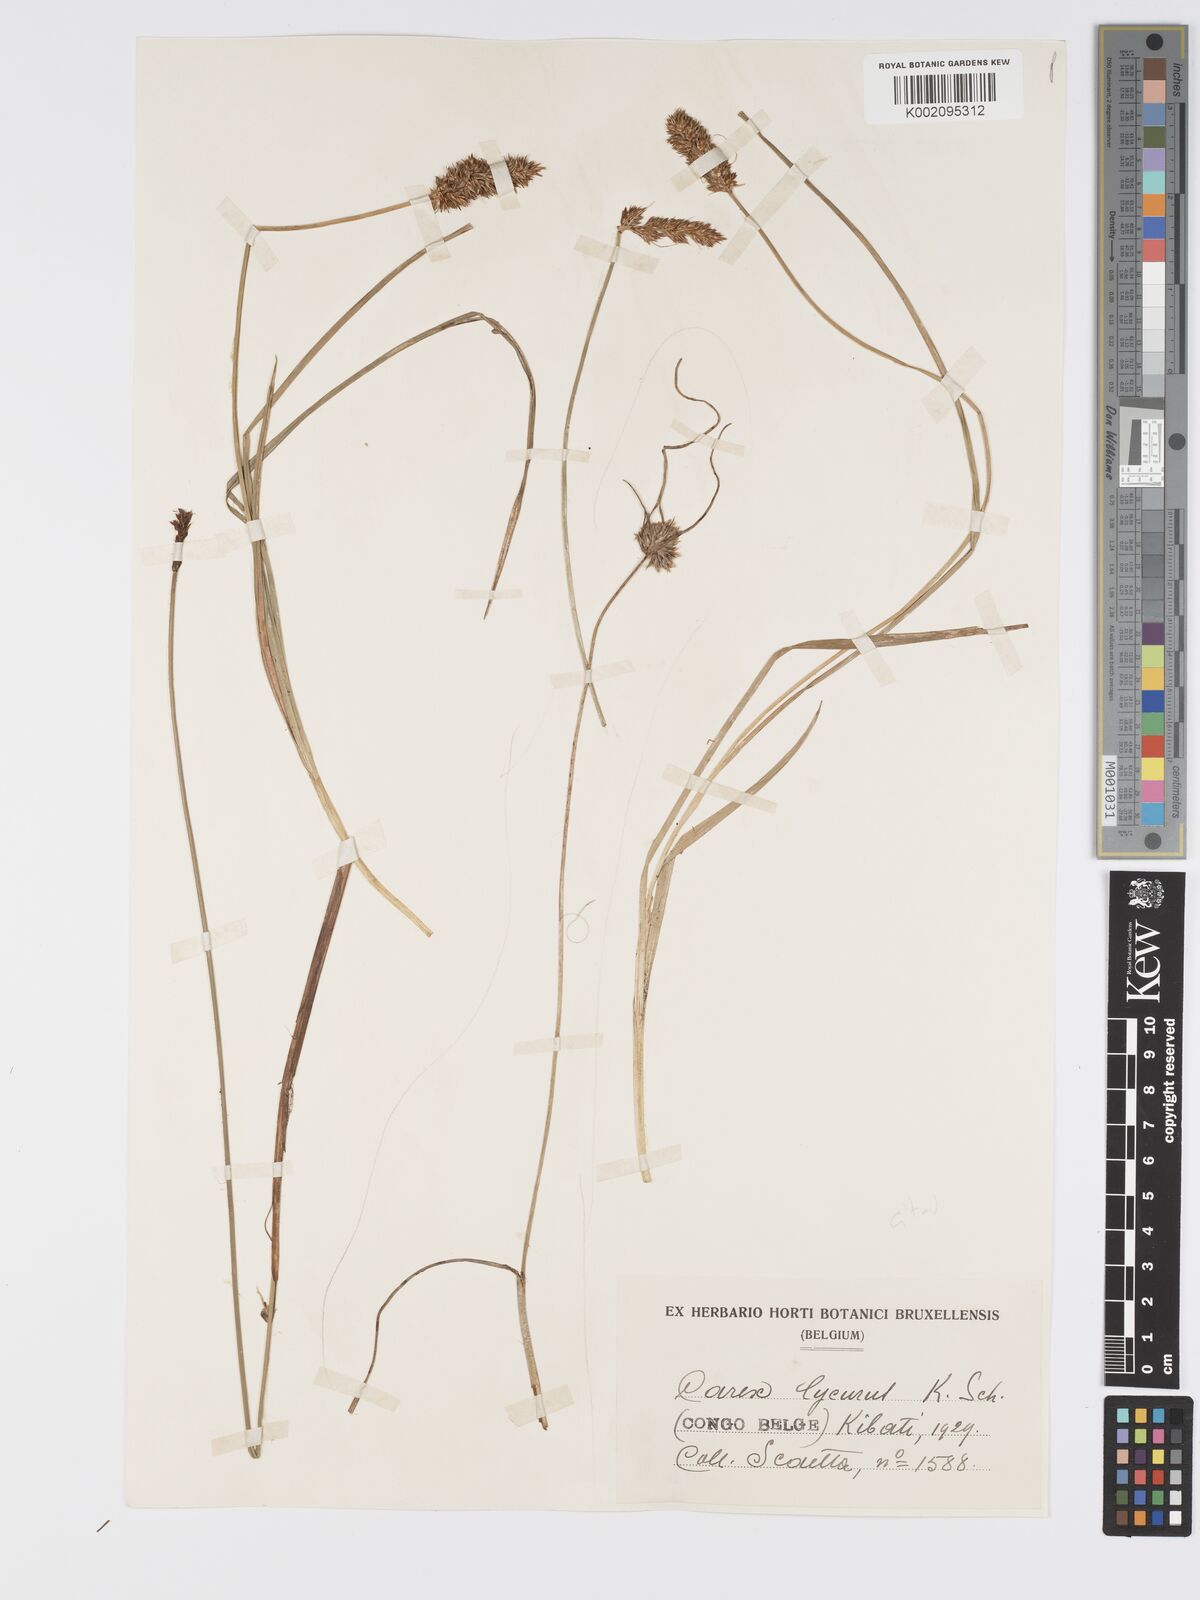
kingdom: Plantae
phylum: Tracheophyta
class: Liliopsida
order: Poales
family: Cyperaceae
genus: Carex
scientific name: Carex lycurus
